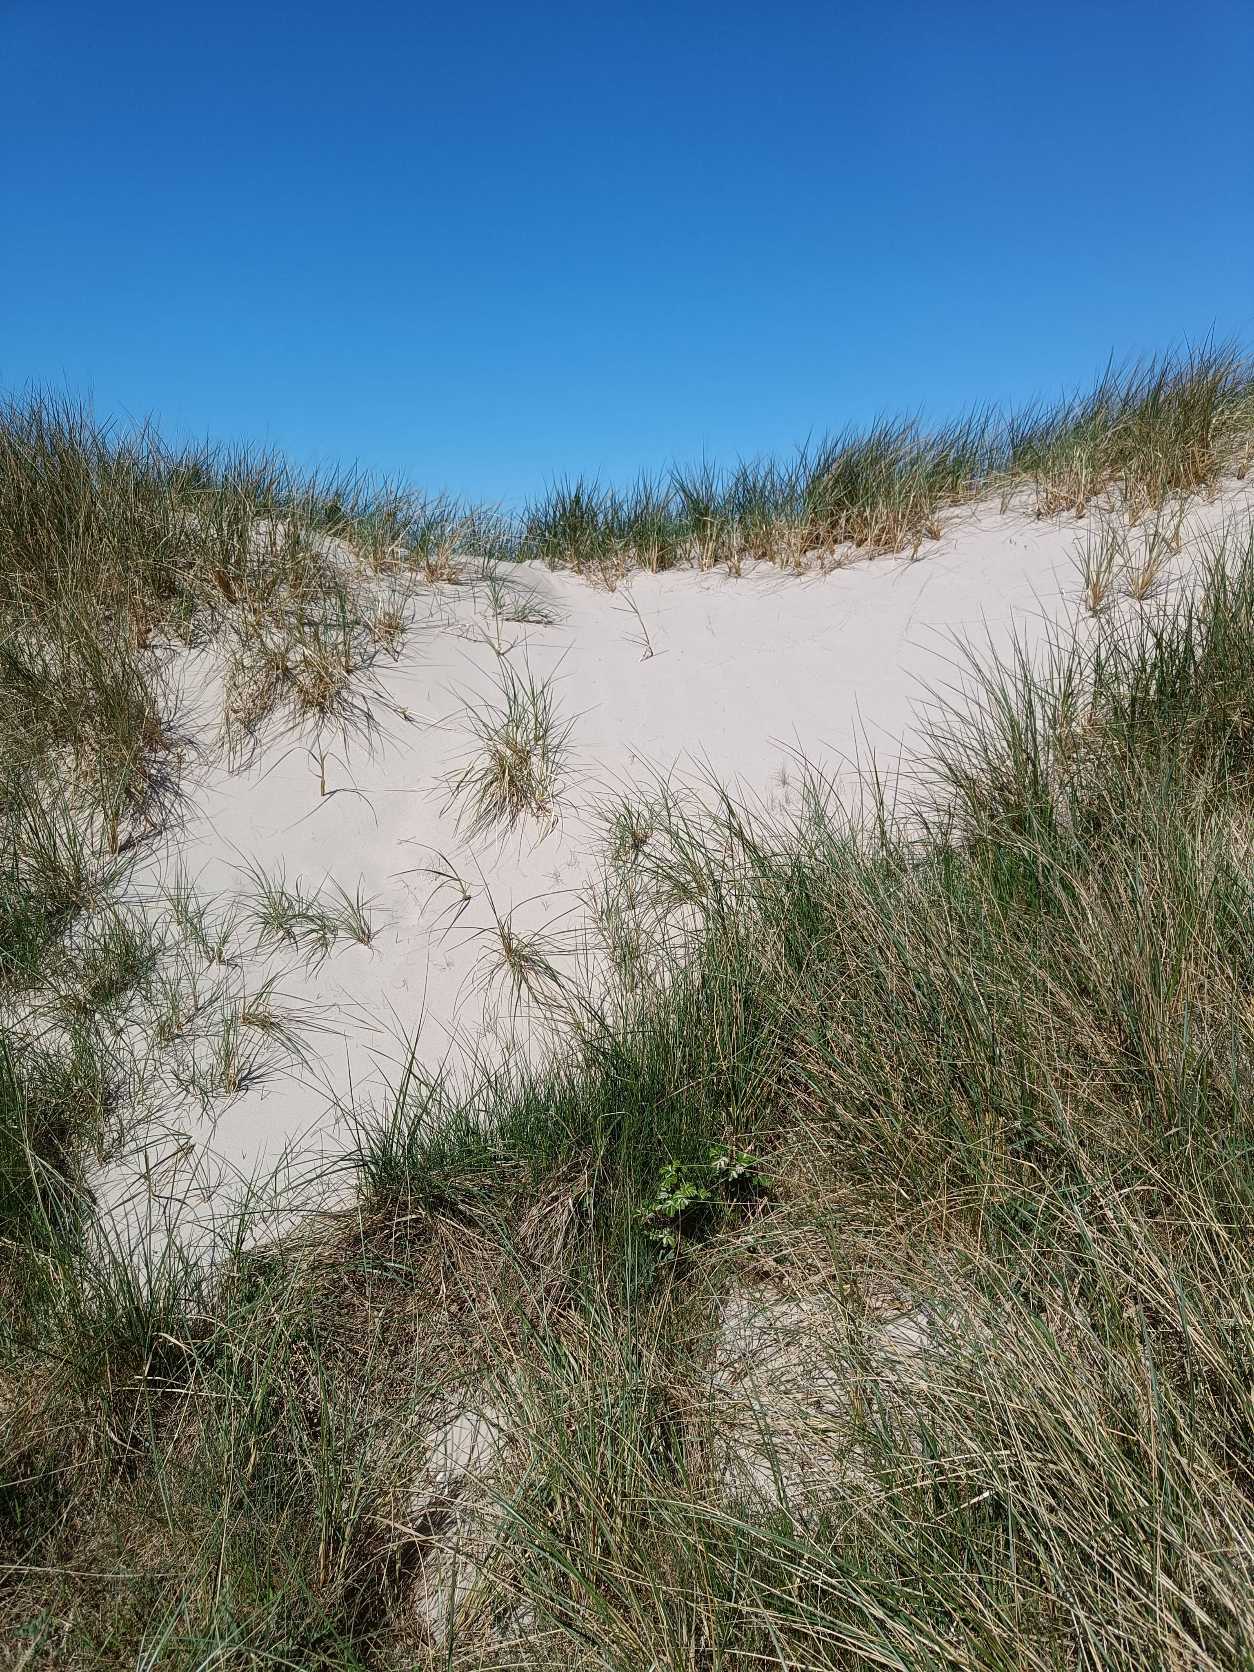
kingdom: Plantae
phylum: Tracheophyta
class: Magnoliopsida
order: Rosales
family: Rosaceae
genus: Rosa
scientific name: Rosa rugosa
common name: Rynket rose
